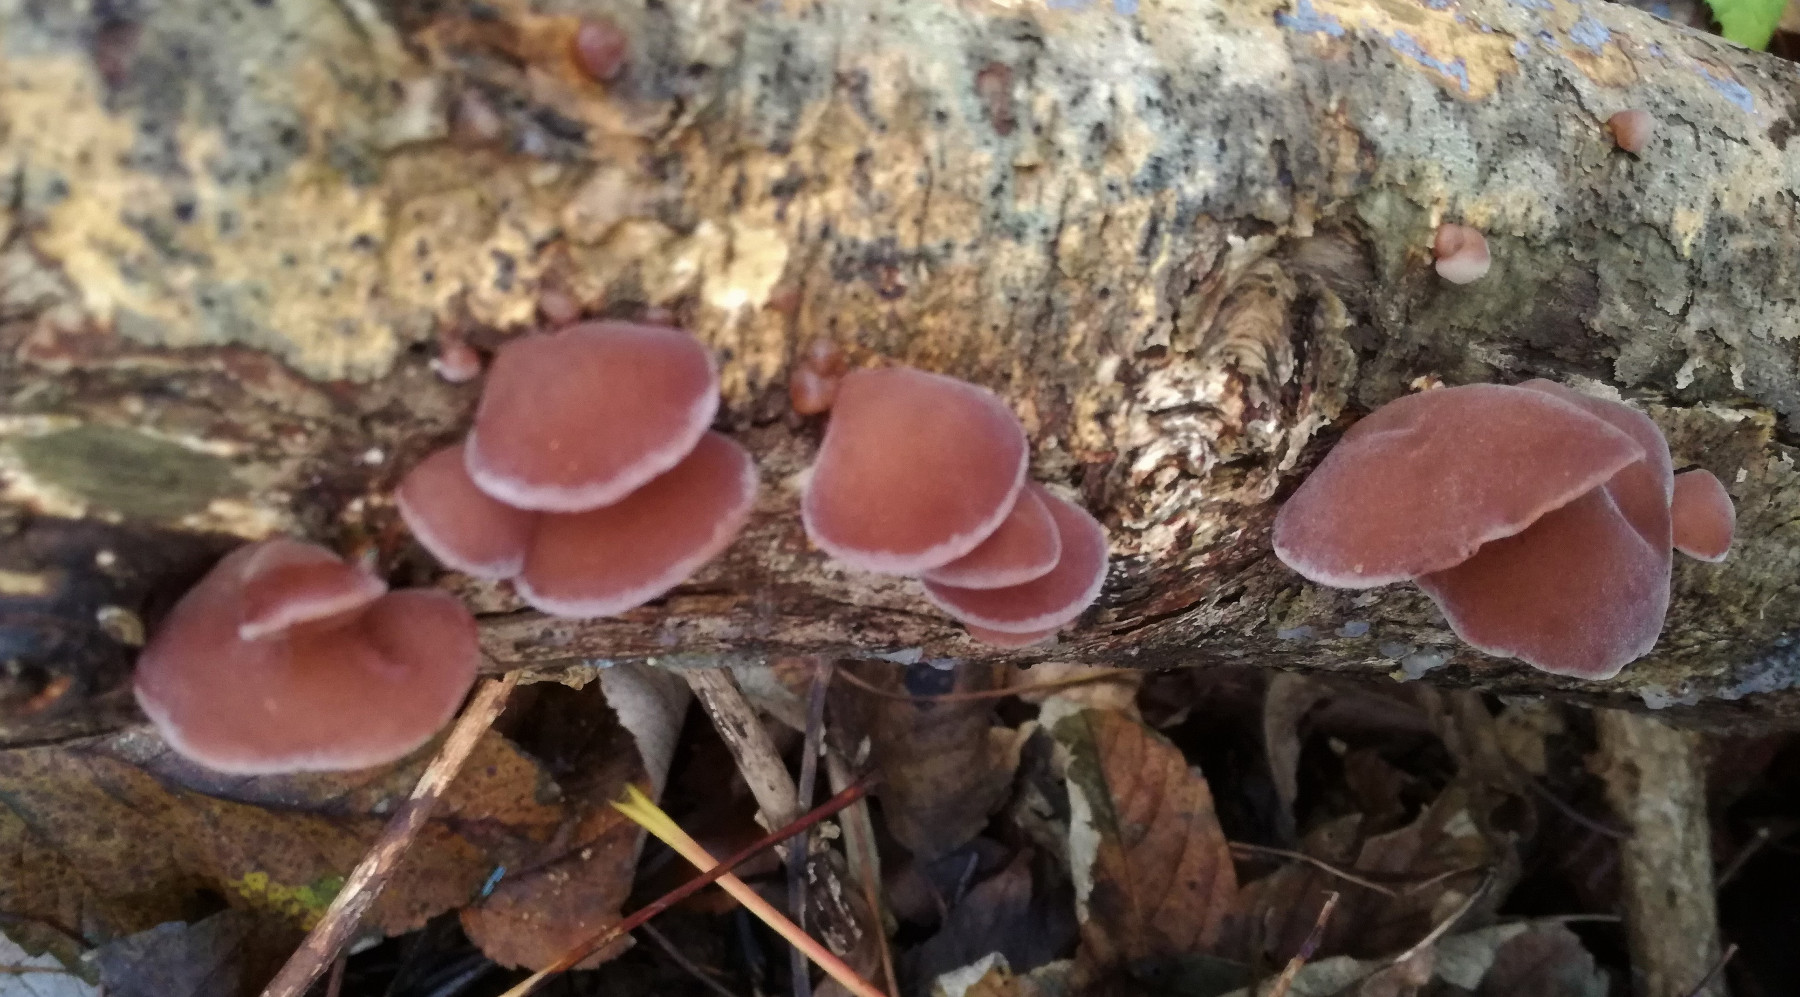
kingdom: Fungi
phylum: Basidiomycota
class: Agaricomycetes
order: Auriculariales
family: Auriculariaceae
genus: Auricularia
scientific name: Auricularia auricula-judae
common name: almindelig judasøre
